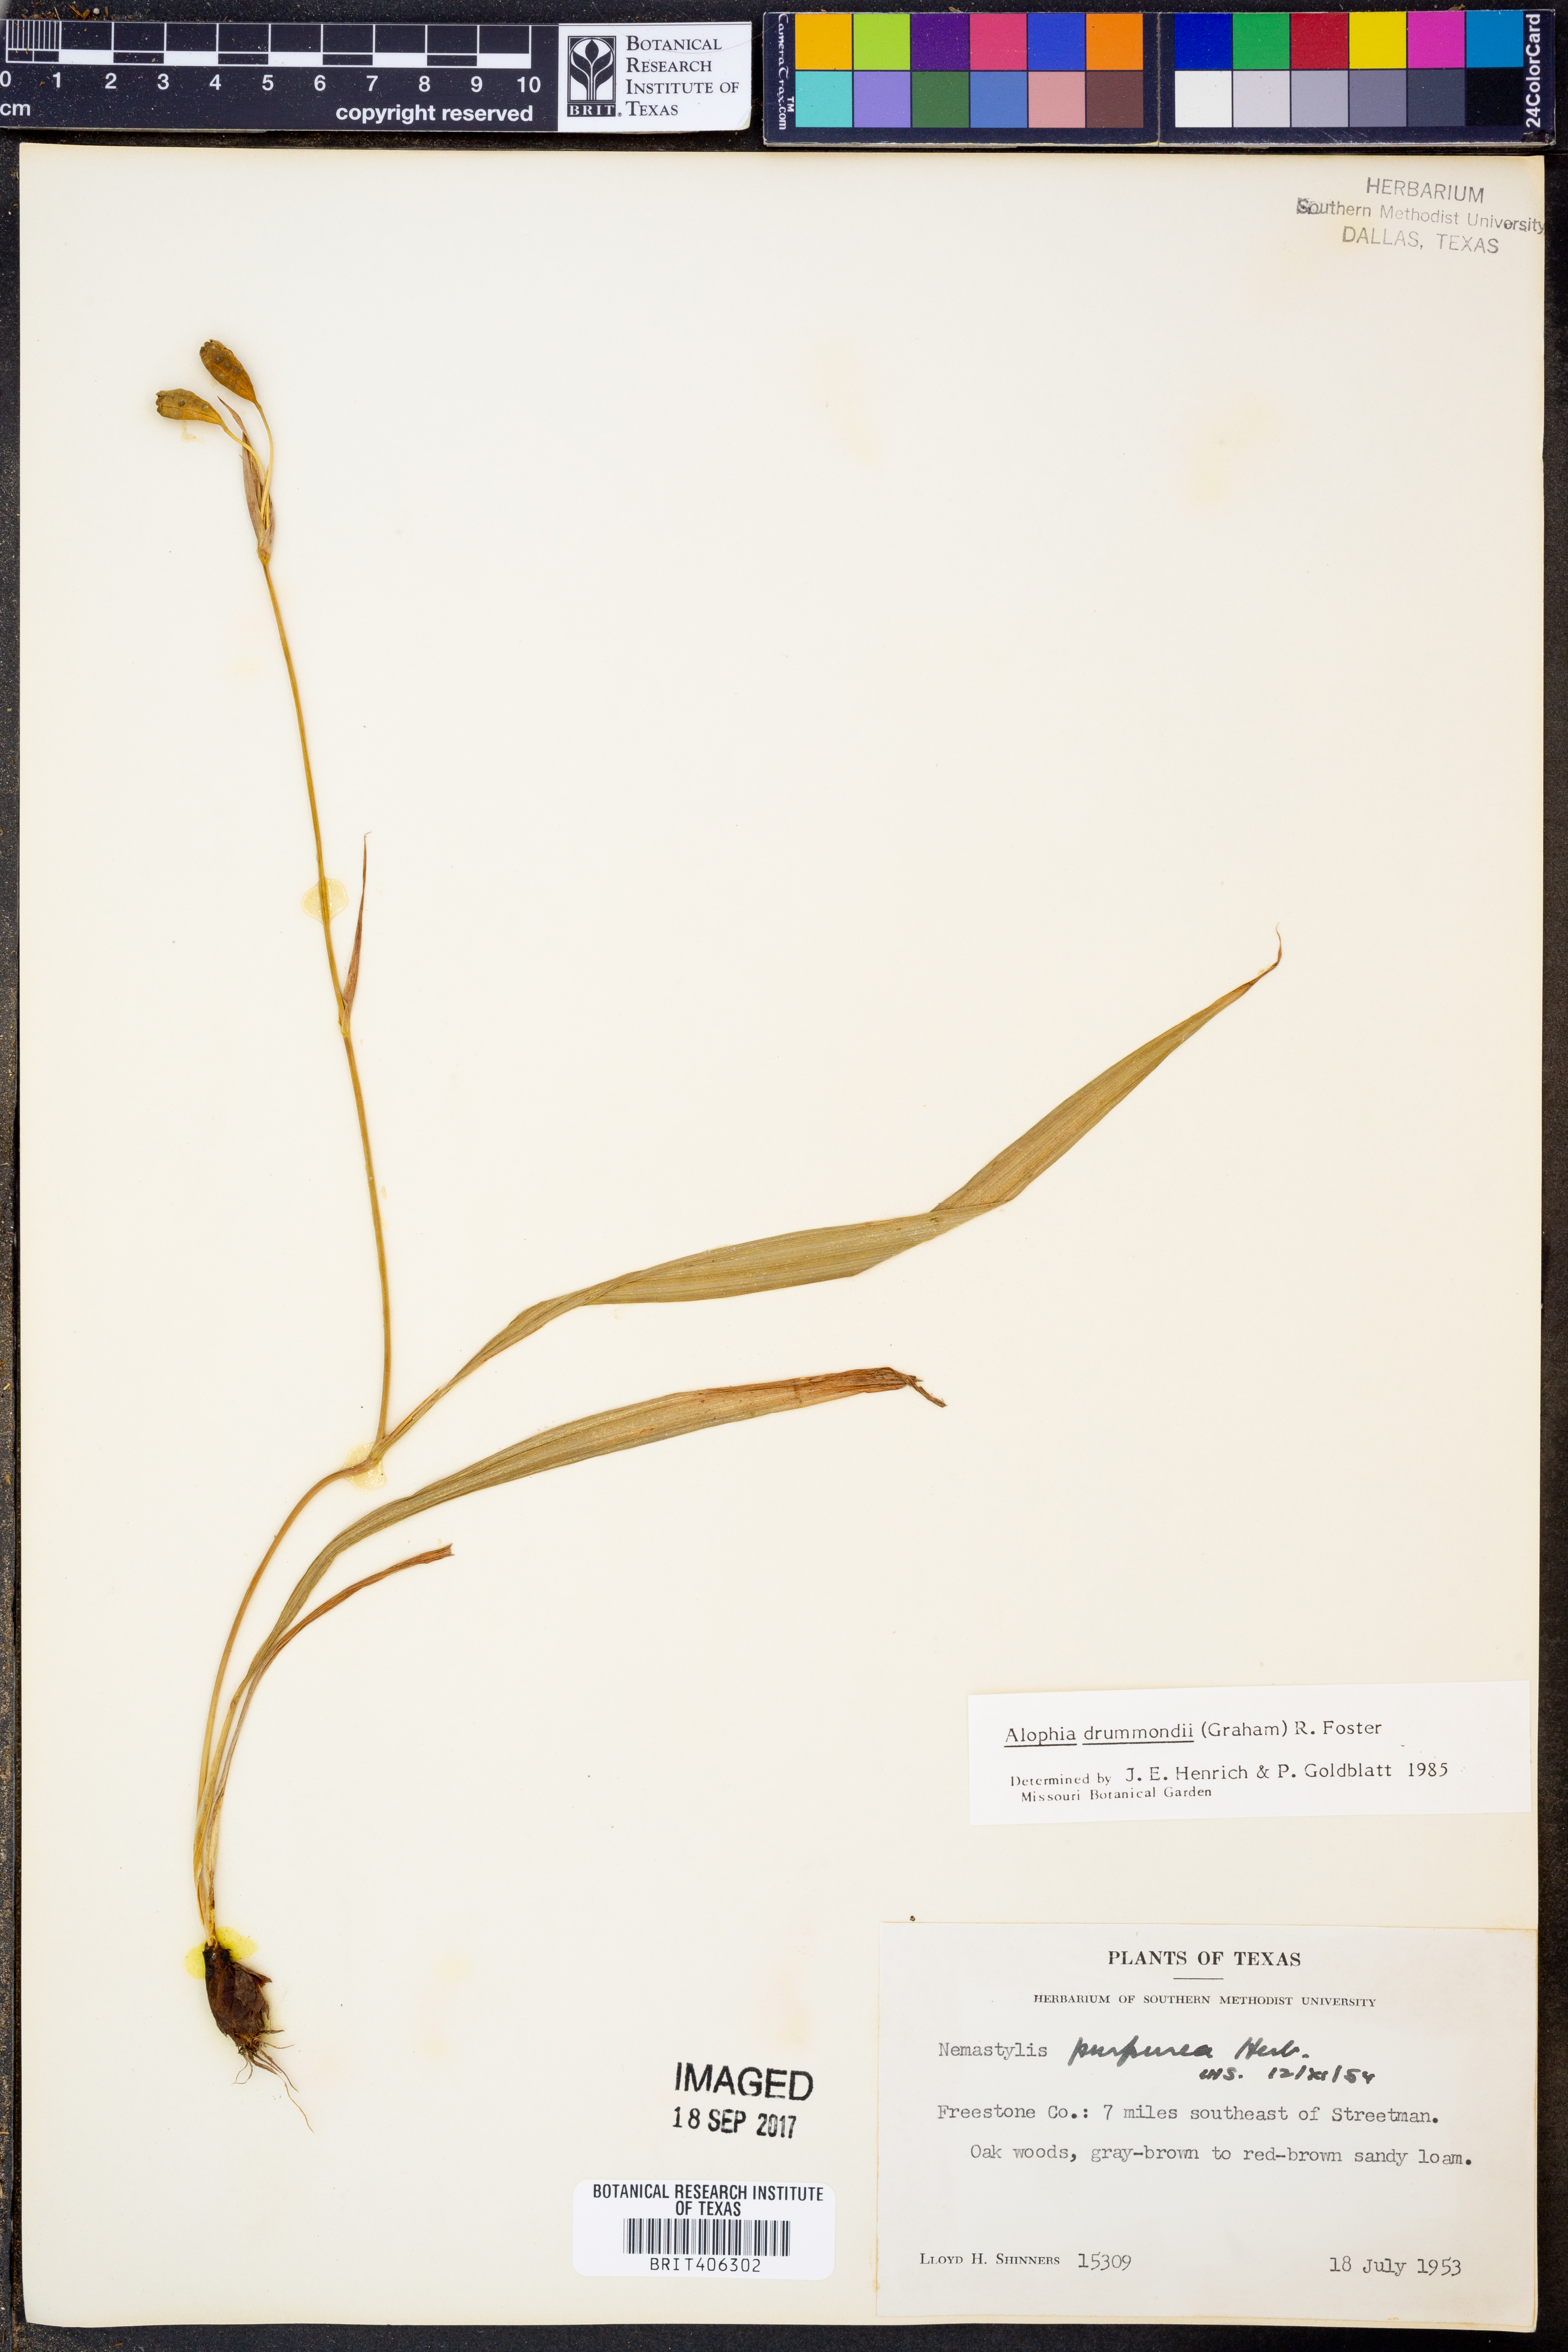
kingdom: Plantae
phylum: Tracheophyta
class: Liliopsida
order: Asparagales
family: Iridaceae
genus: Alophia
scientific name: Alophia drummondii
